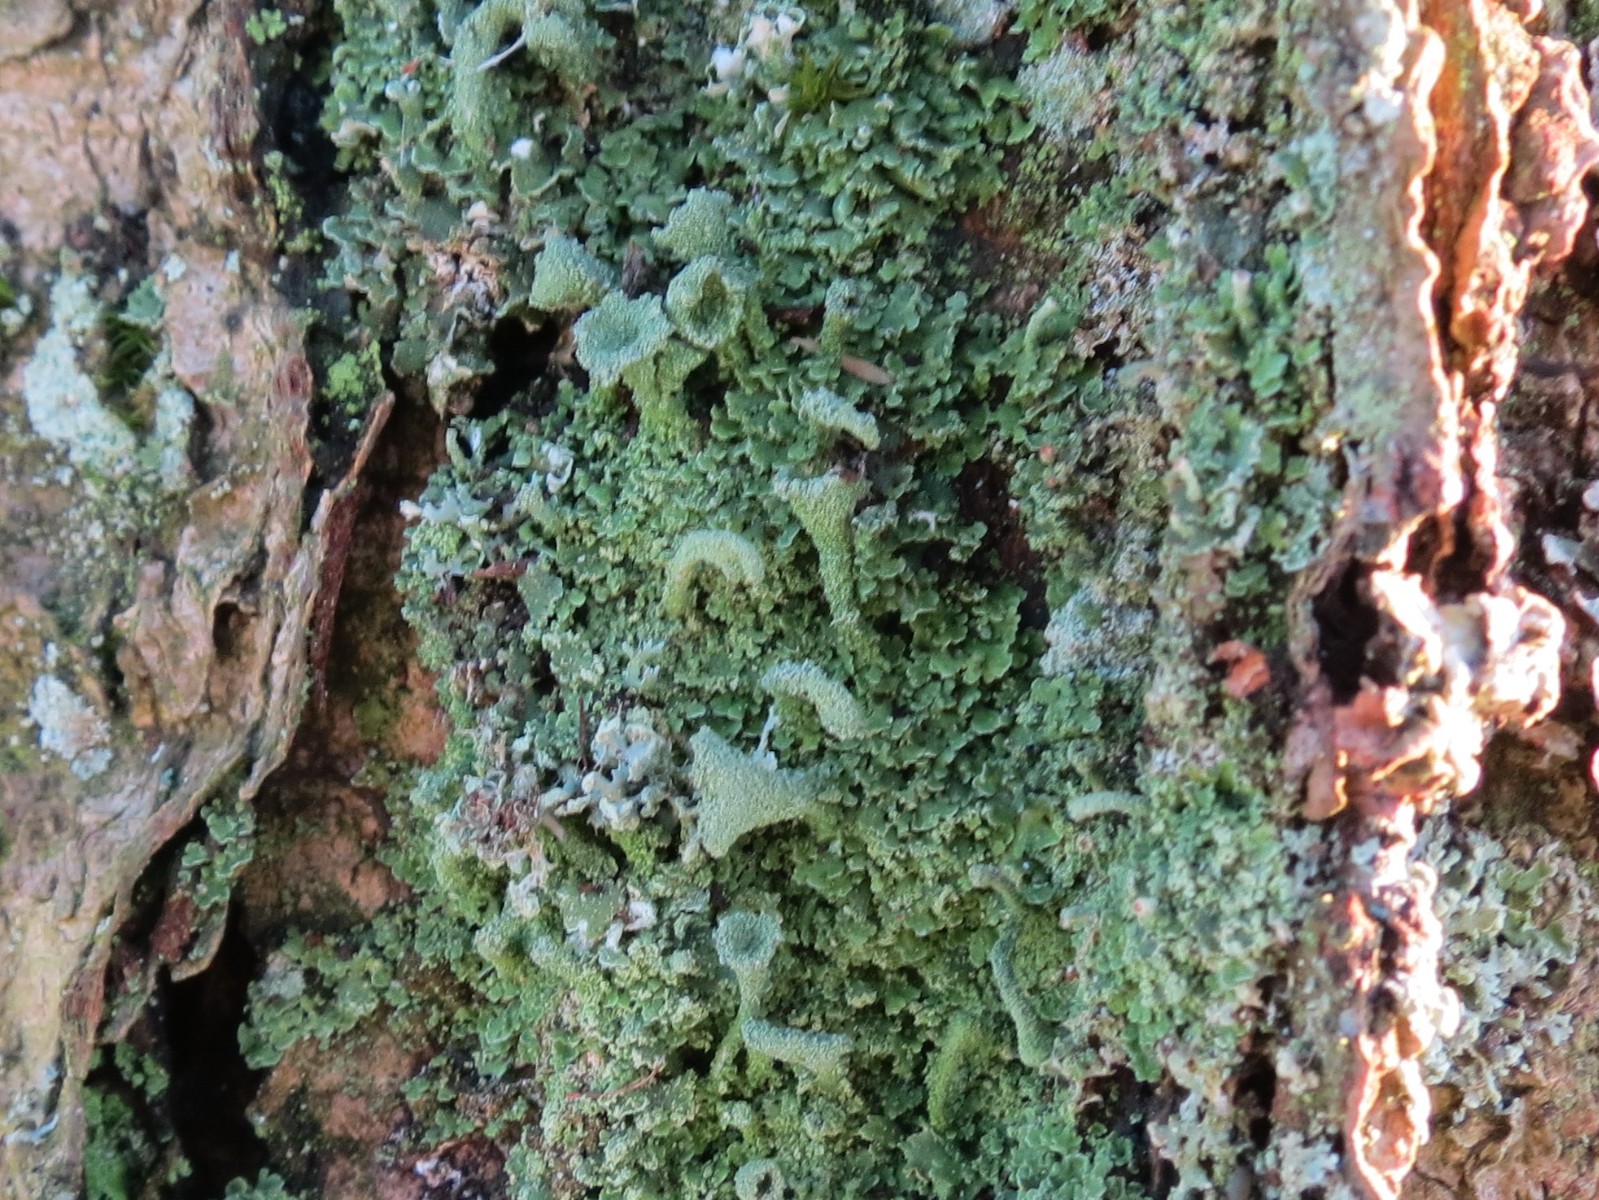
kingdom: Fungi
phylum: Ascomycota
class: Lecanoromycetes
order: Lecanorales
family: Cladoniaceae
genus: Cladonia
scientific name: Cladonia
